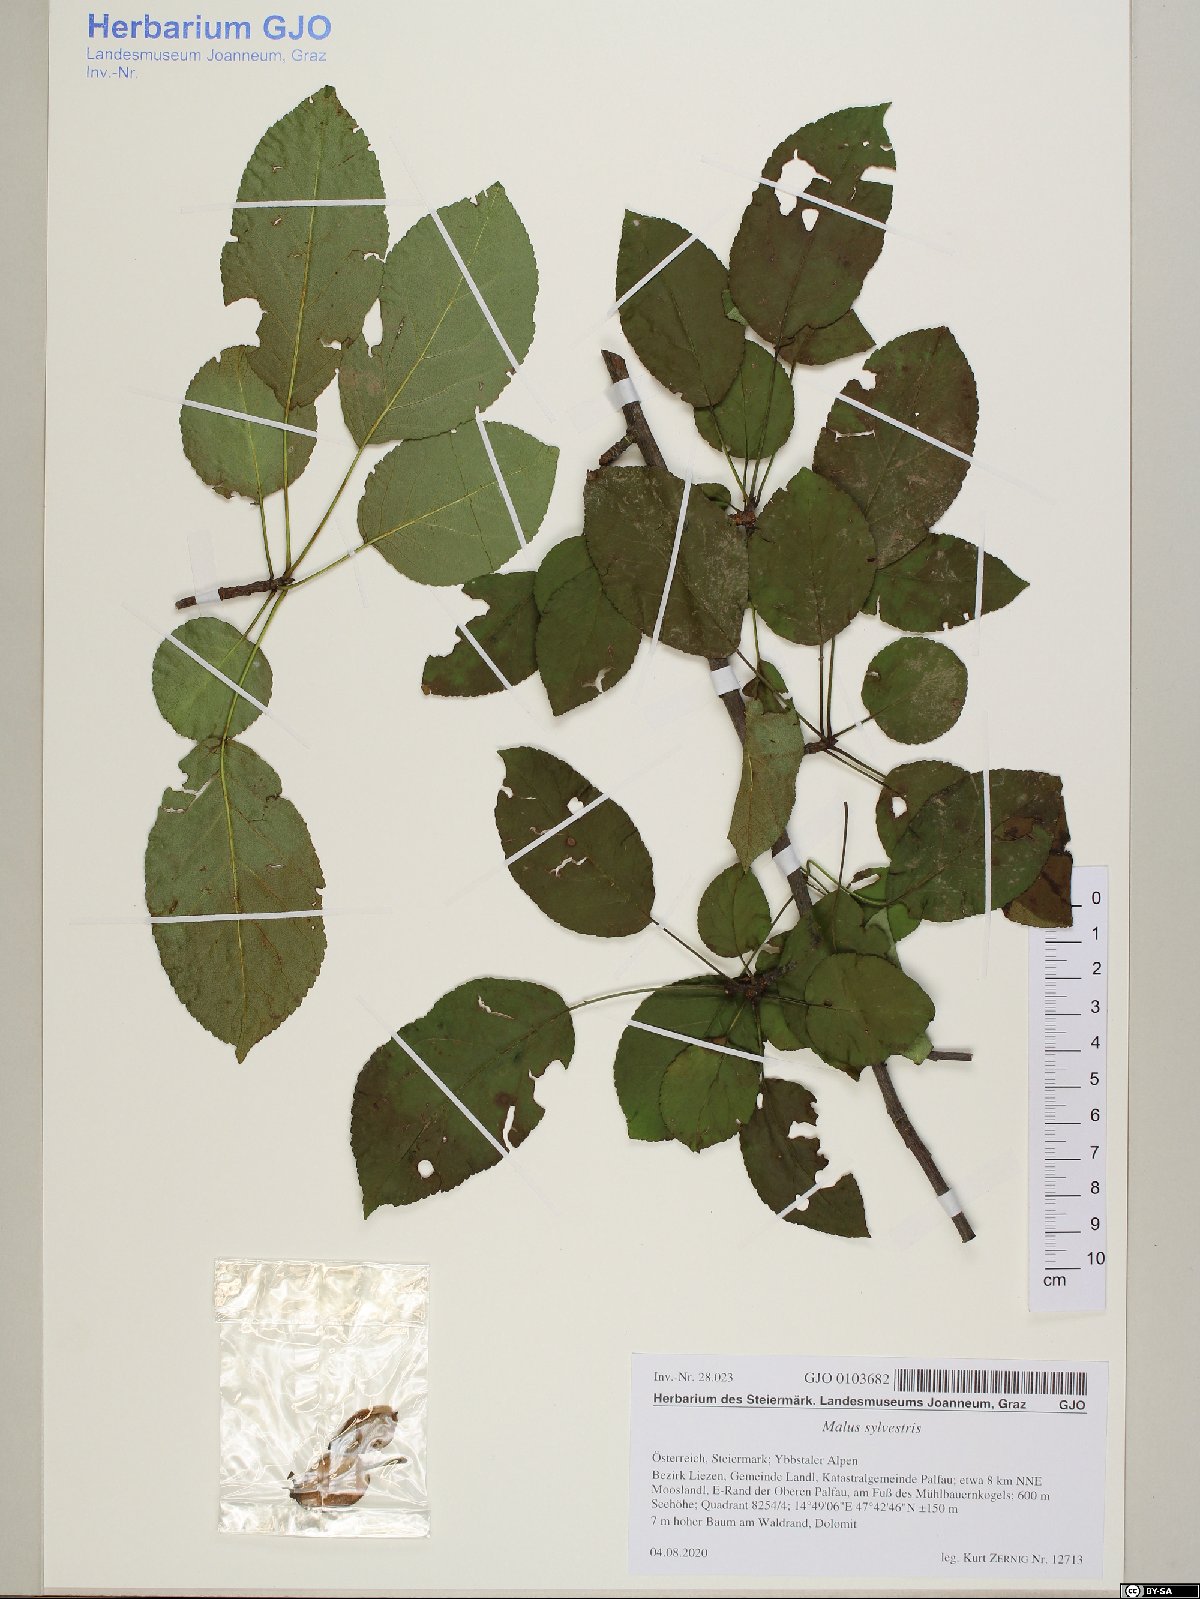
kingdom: Plantae
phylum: Tracheophyta
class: Magnoliopsida
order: Rosales
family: Rosaceae
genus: Malus
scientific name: Malus sylvestris
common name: Crab apple
